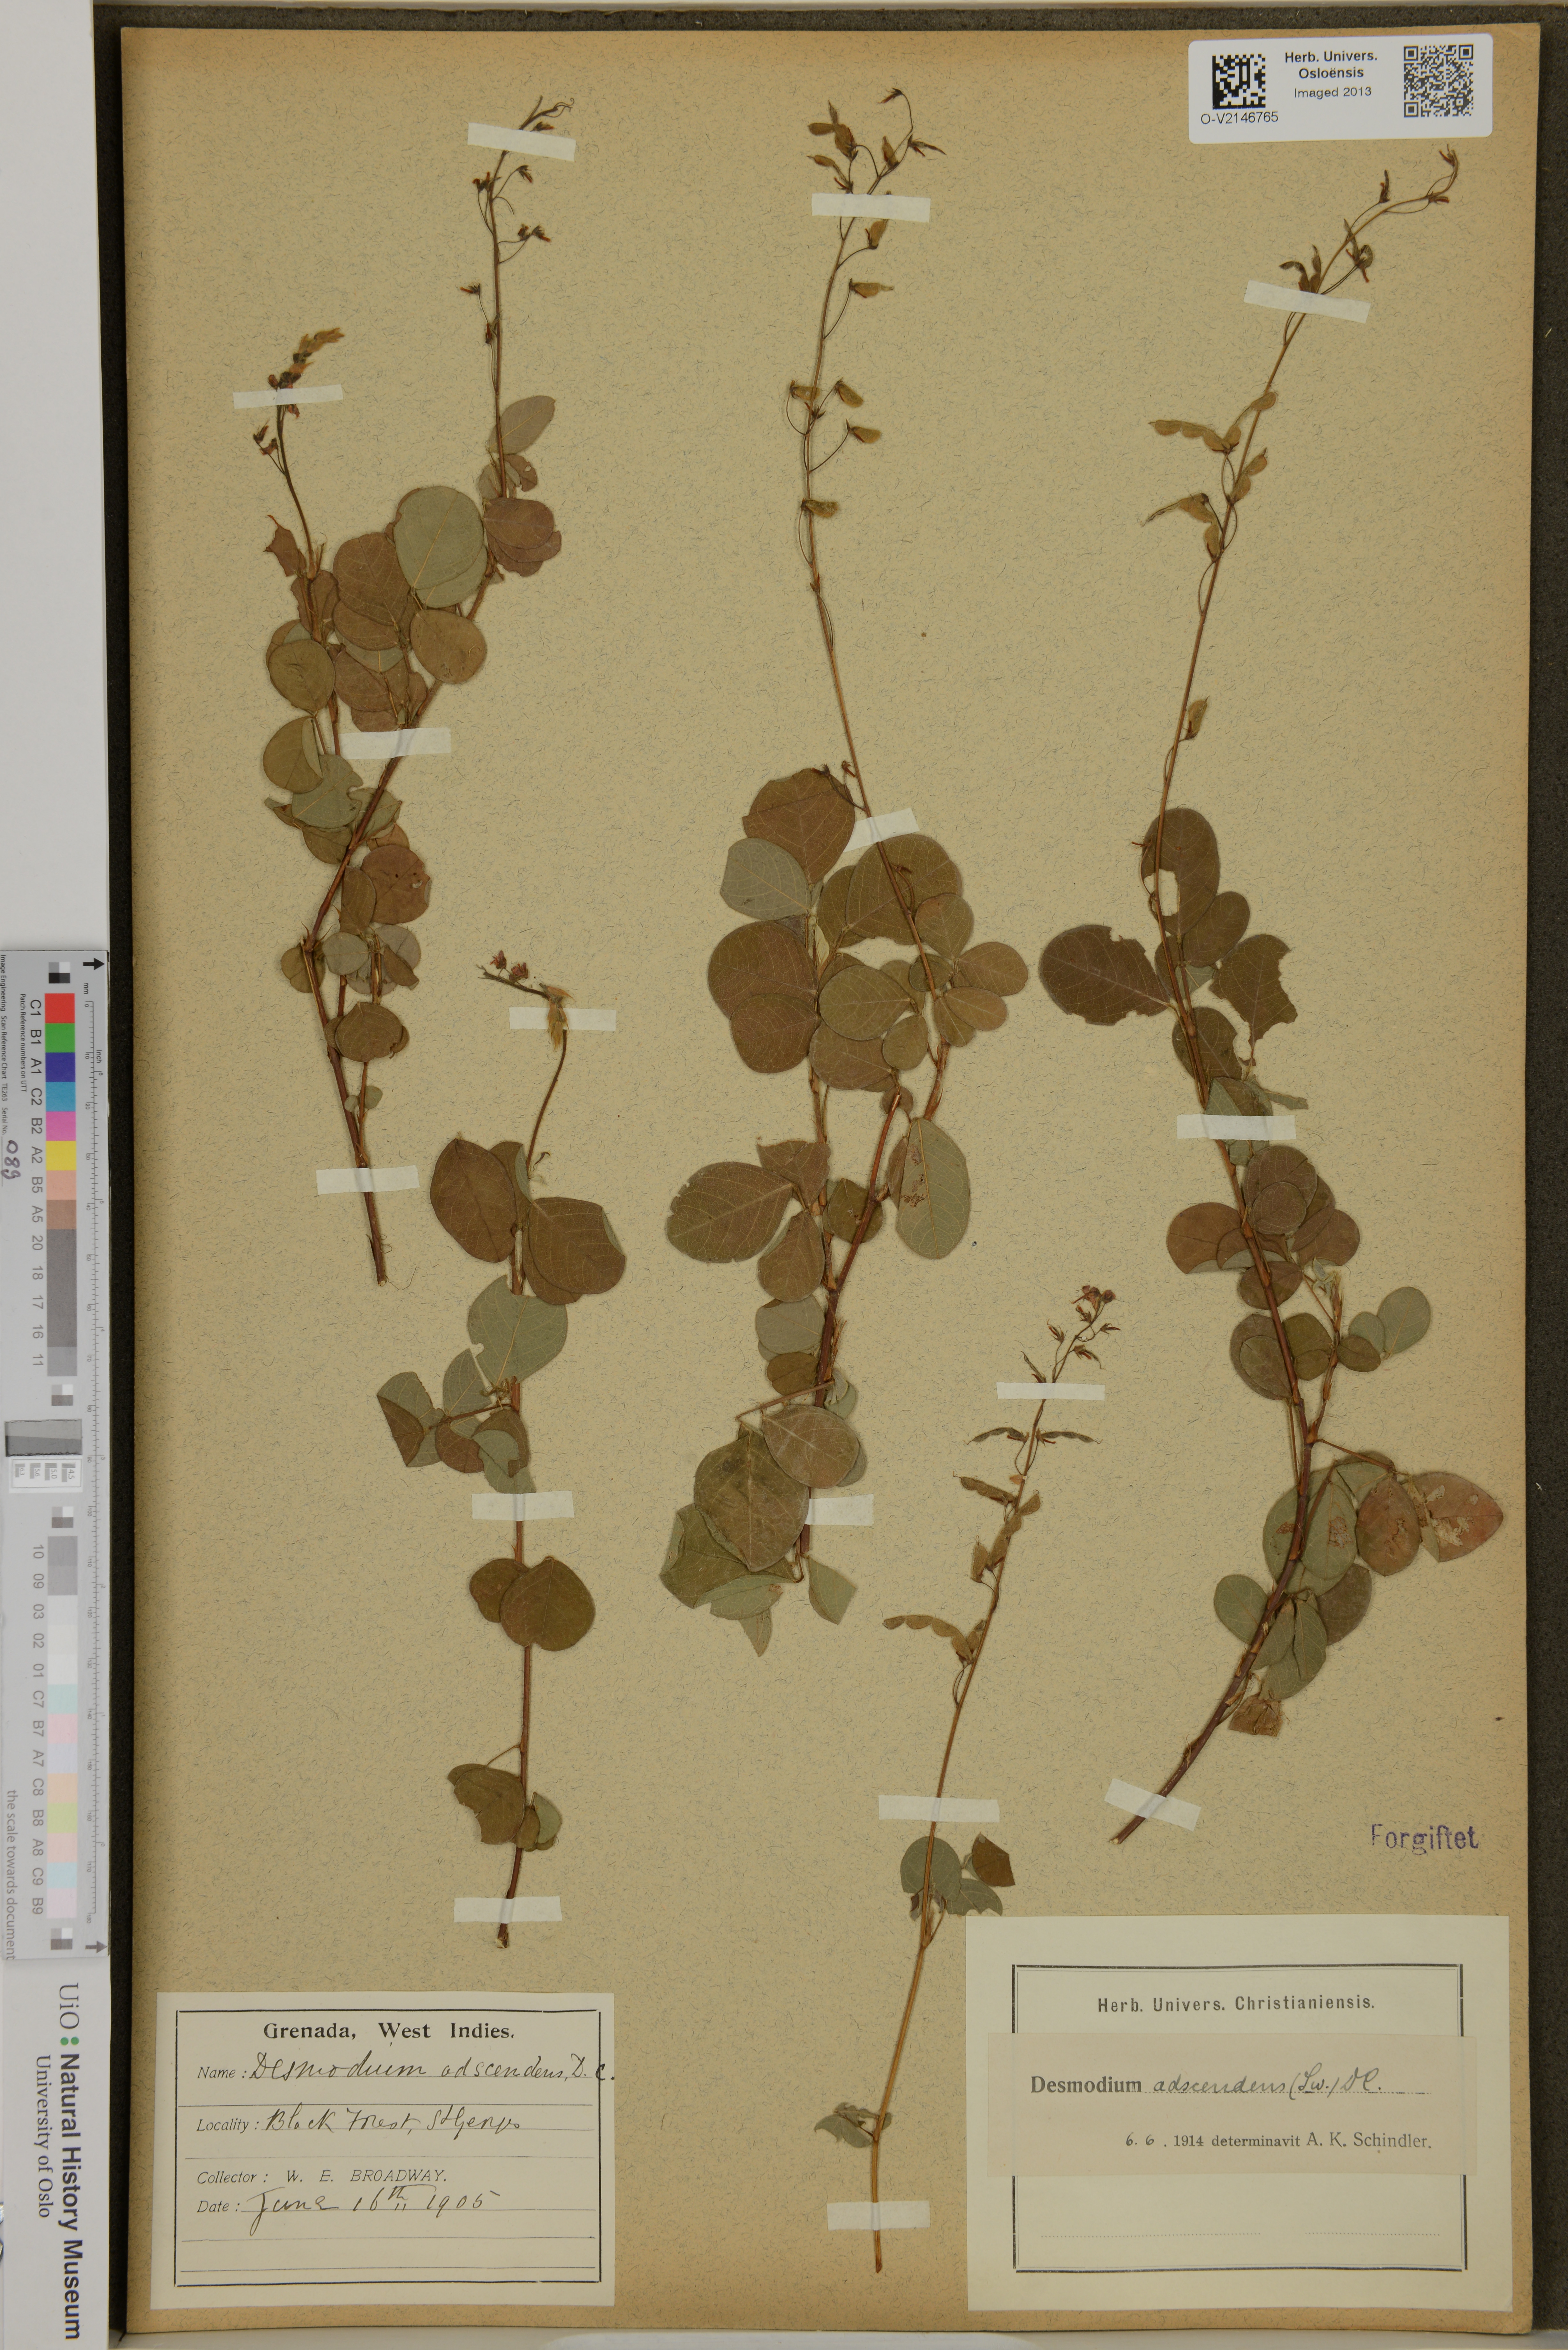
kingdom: Plantae
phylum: Tracheophyta
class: Magnoliopsida
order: Fabales
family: Fabaceae
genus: Grona
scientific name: Grona adscendens
